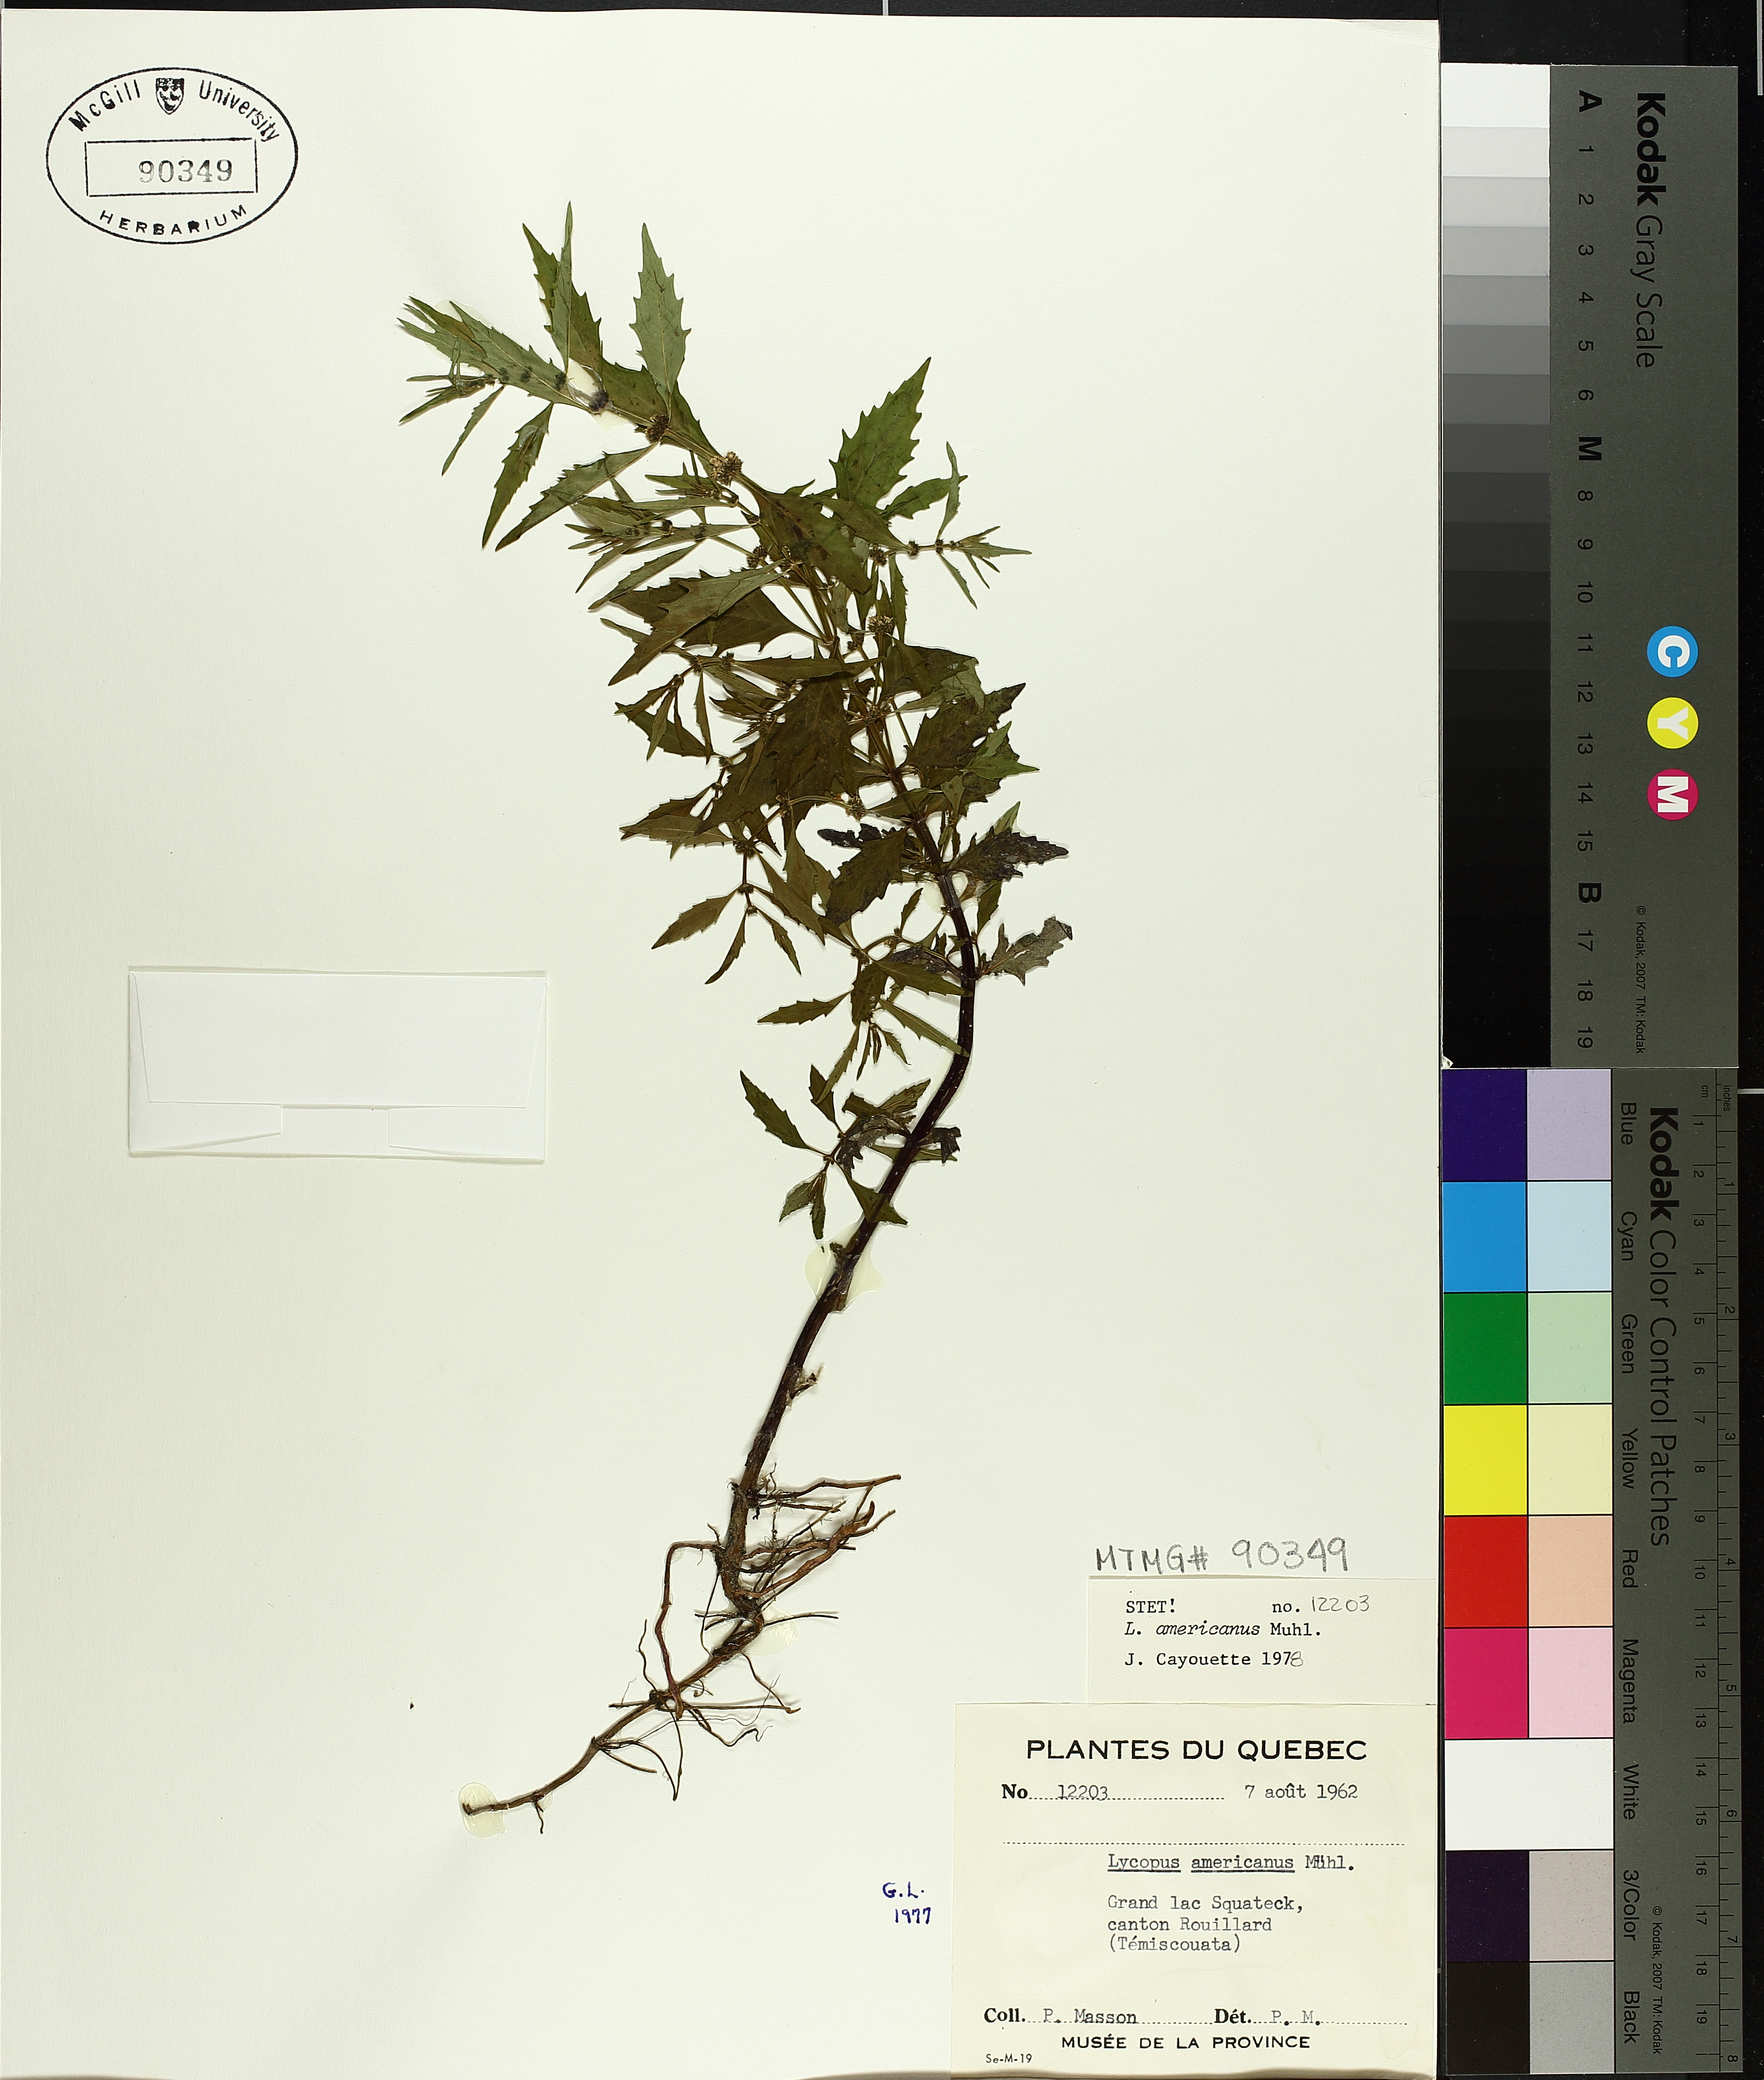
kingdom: Plantae
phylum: Tracheophyta
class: Magnoliopsida
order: Lamiales
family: Lamiaceae
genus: Lycopus
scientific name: Lycopus americanus
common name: American bugleweed
